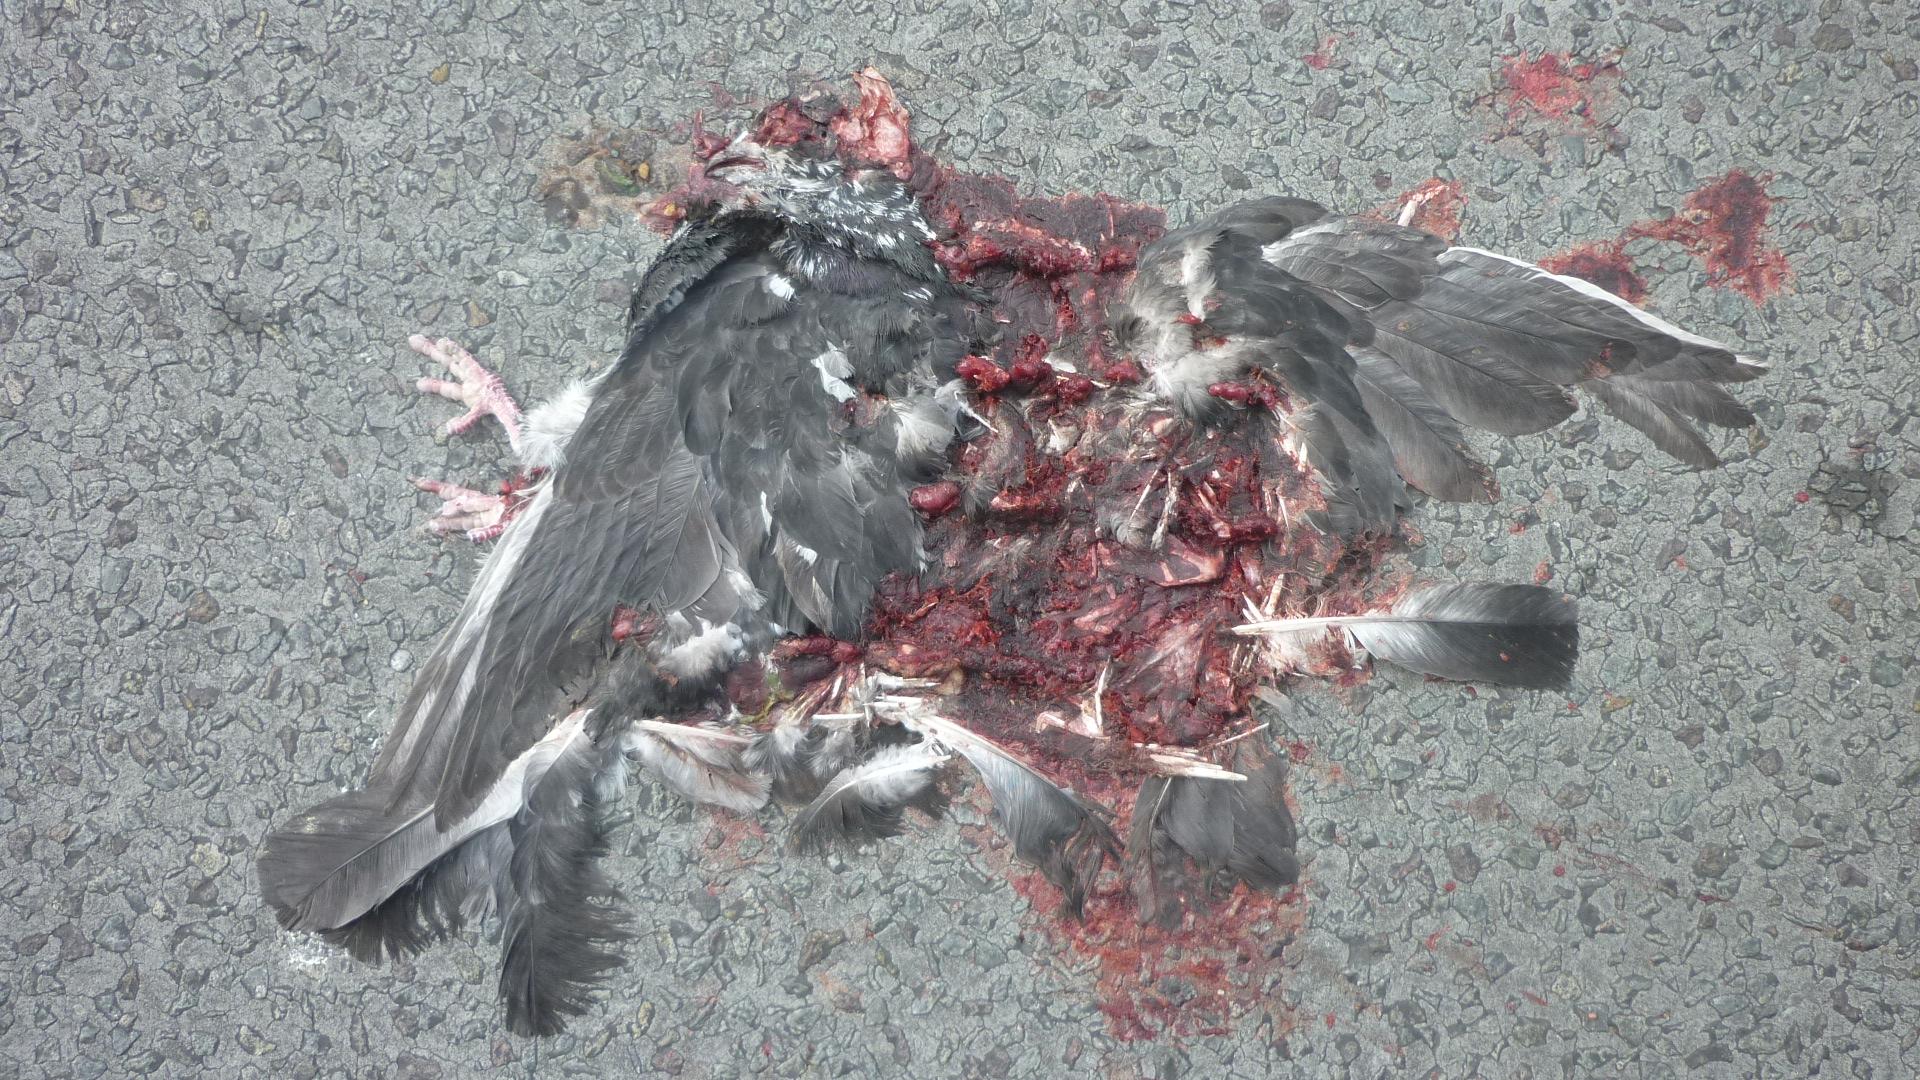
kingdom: Animalia
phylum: Chordata
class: Aves
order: Columbiformes
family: Columbidae
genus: Columba
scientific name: Columba livia
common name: Rock pigeon
